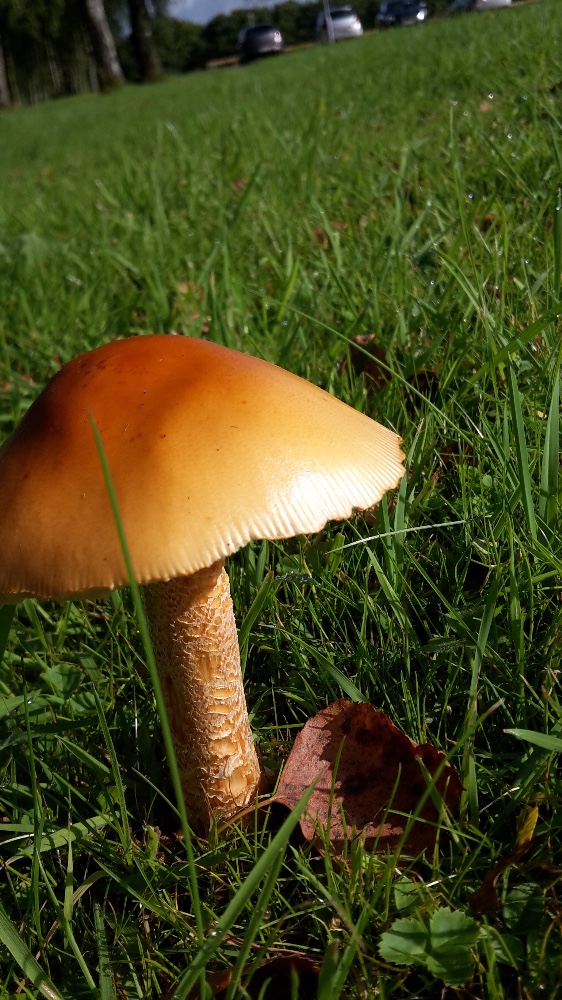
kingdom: Fungi
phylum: Basidiomycota
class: Agaricomycetes
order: Agaricales
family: Amanitaceae
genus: Amanita
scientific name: Amanita crocea
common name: gylden kam-fluesvamp
